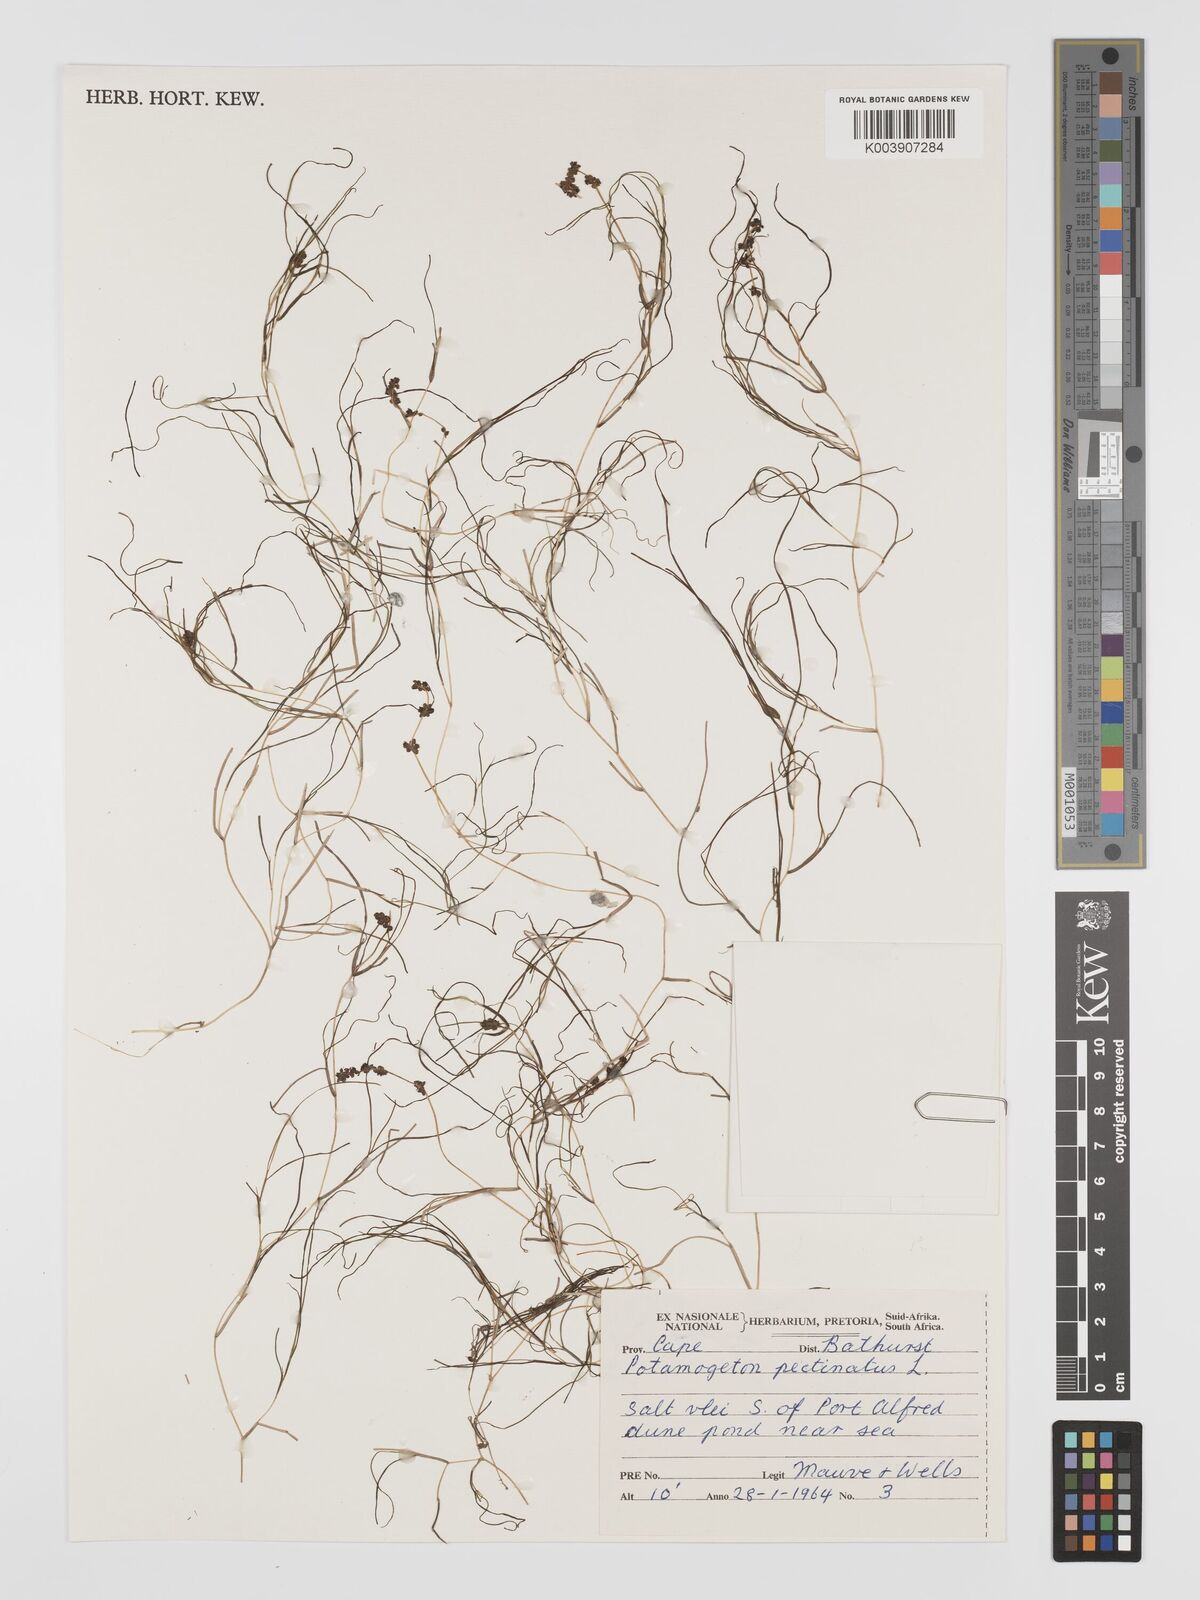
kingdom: Plantae
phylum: Tracheophyta
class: Liliopsida
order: Alismatales
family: Potamogetonaceae
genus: Stuckenia
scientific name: Stuckenia pectinata
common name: Sago pondweed
